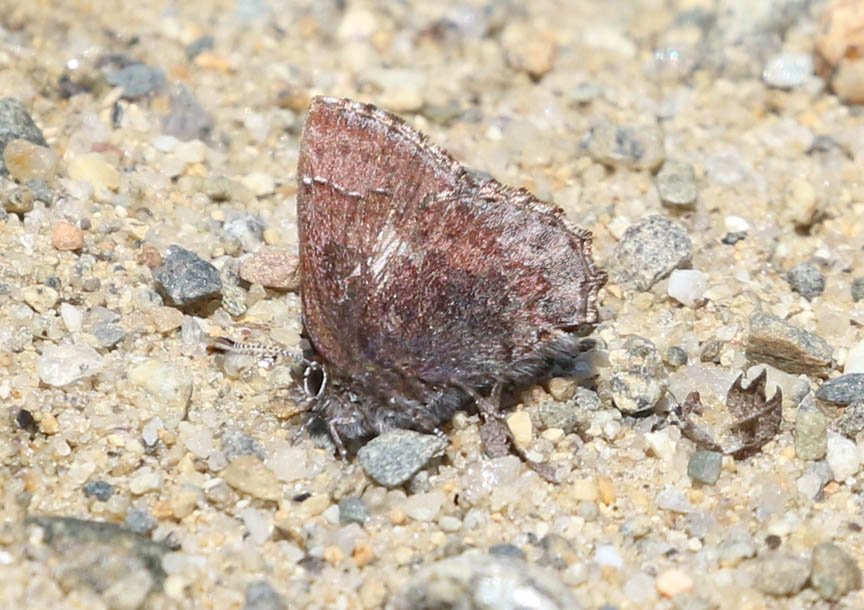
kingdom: Animalia
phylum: Arthropoda
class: Insecta
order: Lepidoptera
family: Lycaenidae
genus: Callophrys
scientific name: Callophrys polios
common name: Hoary Elfin
